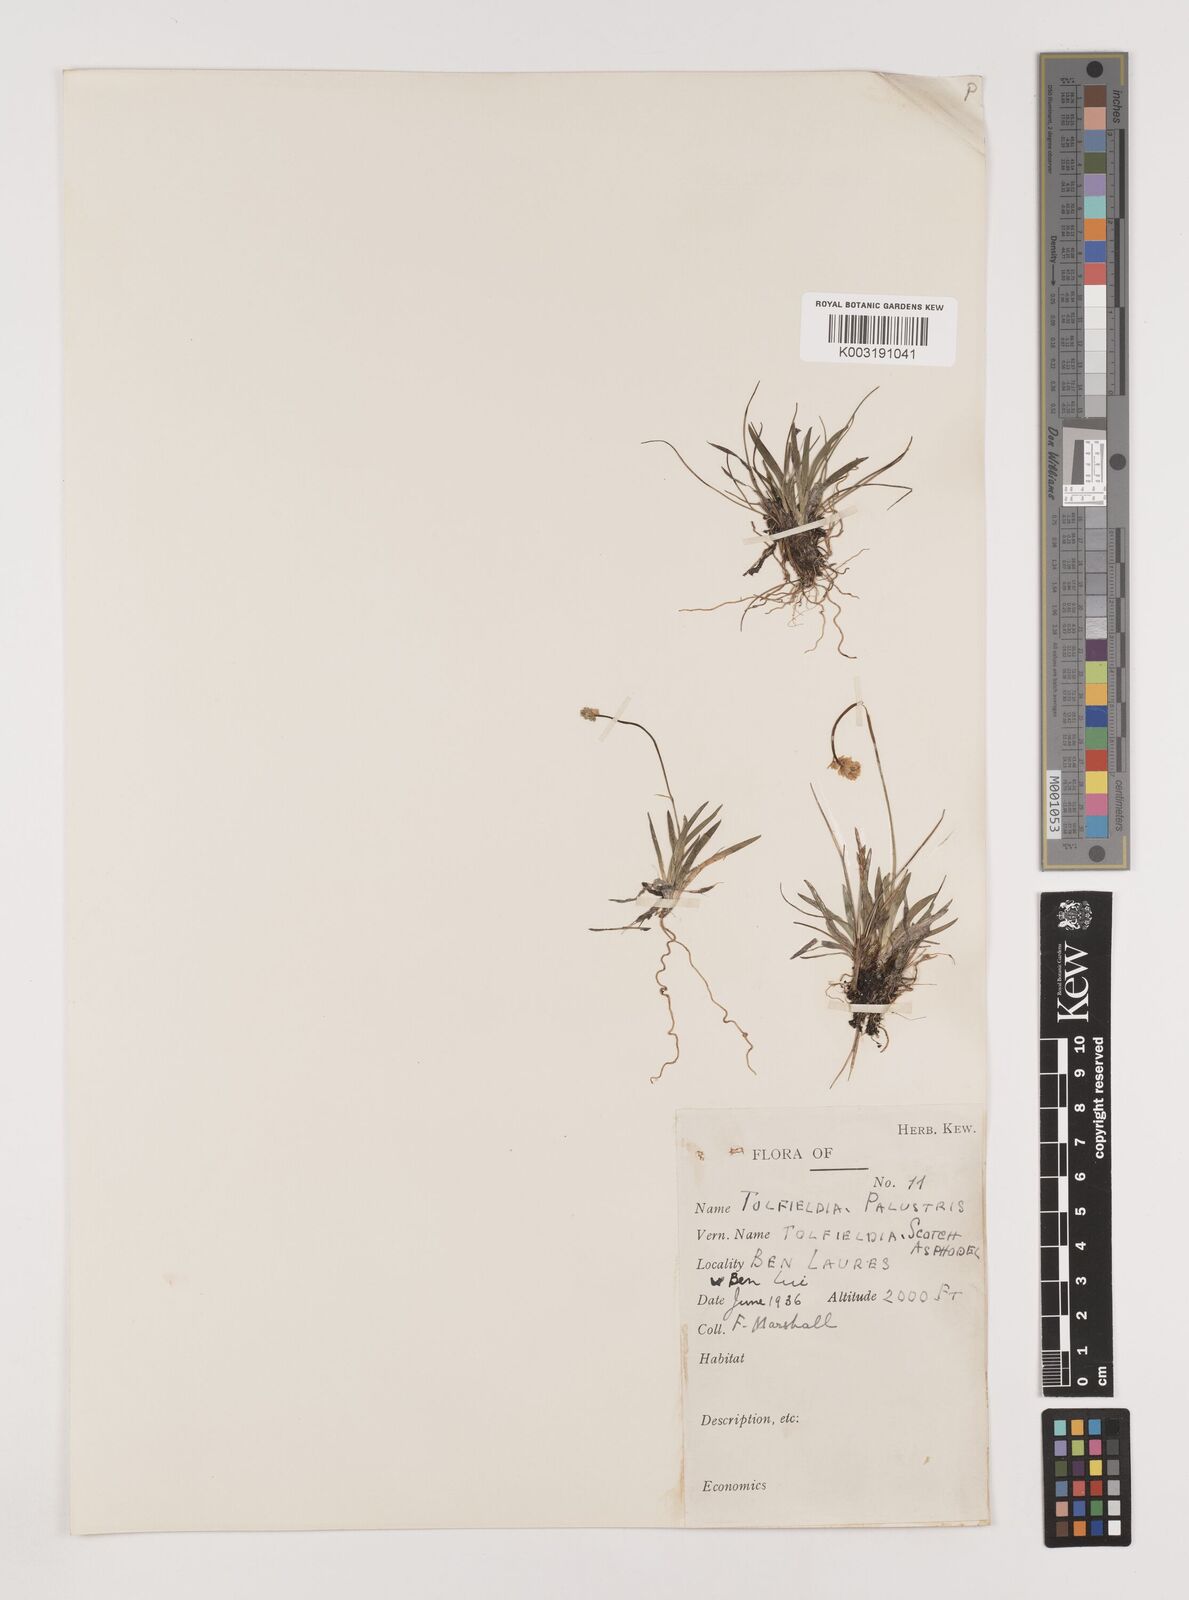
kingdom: Plantae
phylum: Tracheophyta
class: Liliopsida
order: Alismatales
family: Tofieldiaceae
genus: Tofieldia
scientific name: Tofieldia pusilla
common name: Scottish false asphodel
